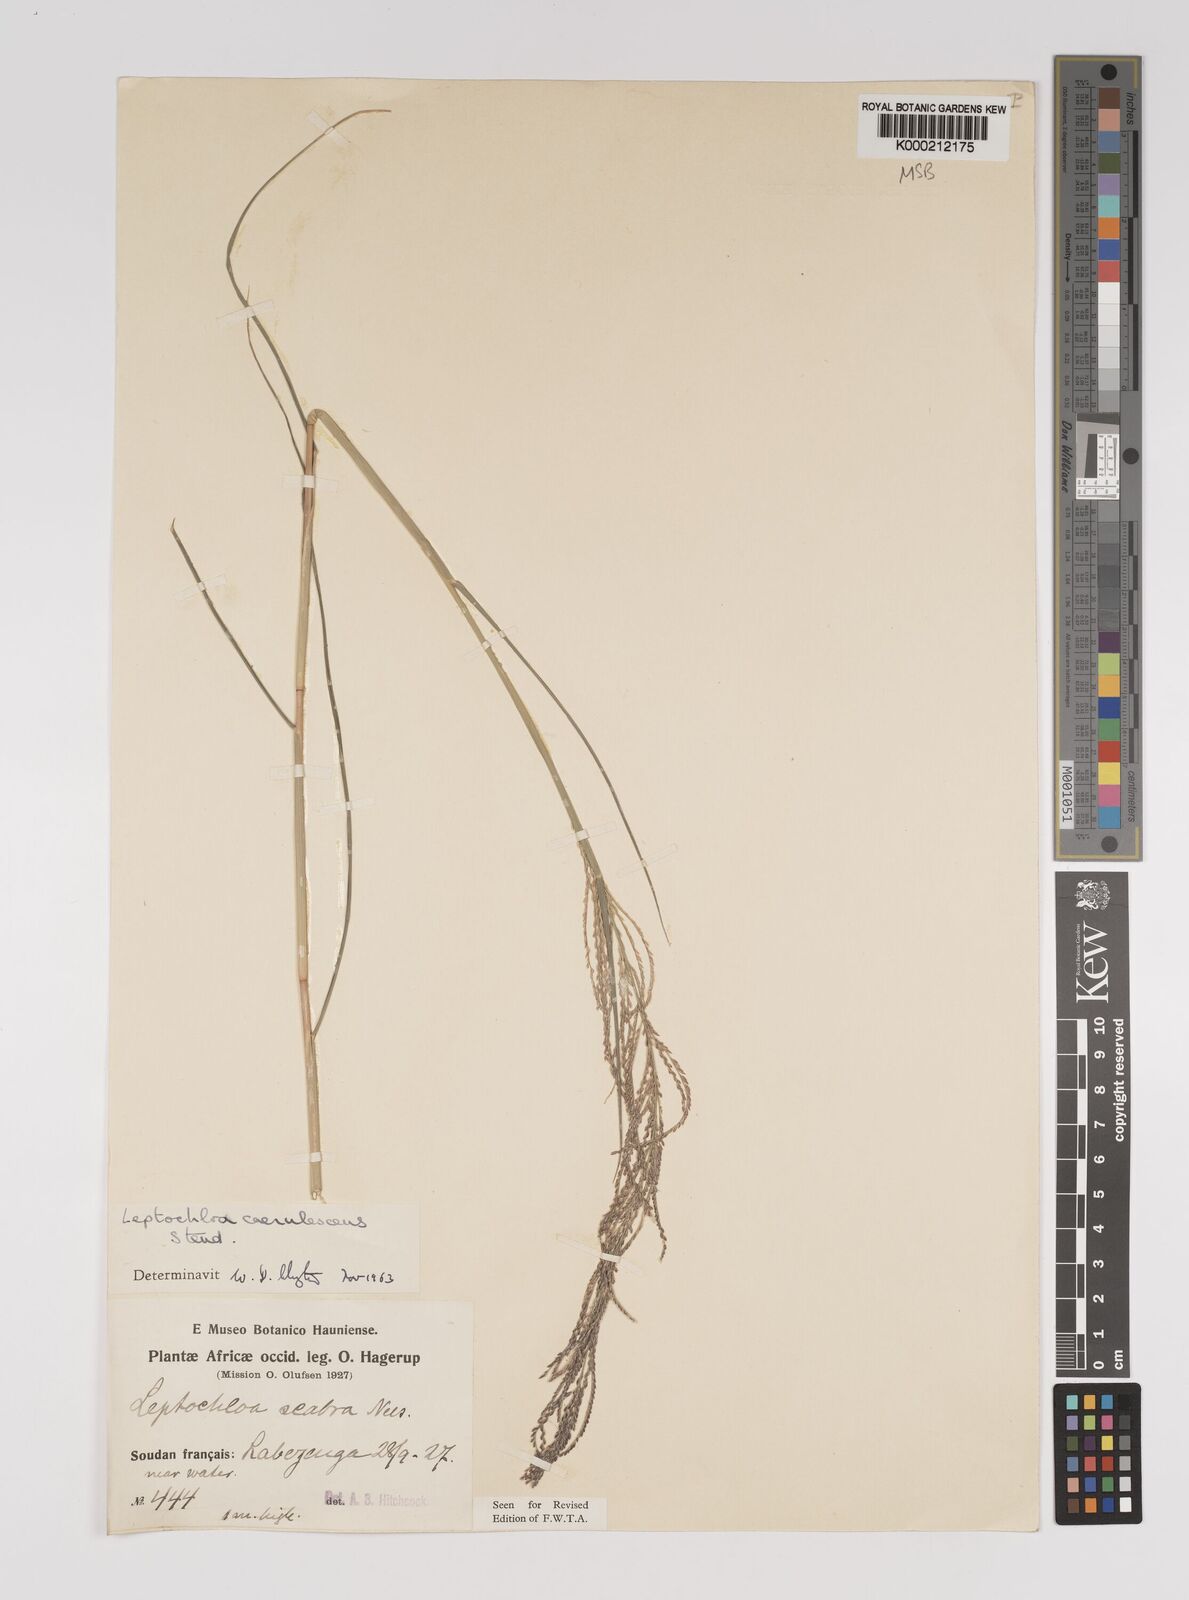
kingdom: Plantae
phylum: Tracheophyta
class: Liliopsida
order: Poales
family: Poaceae
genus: Leptochloa
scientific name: Leptochloa
